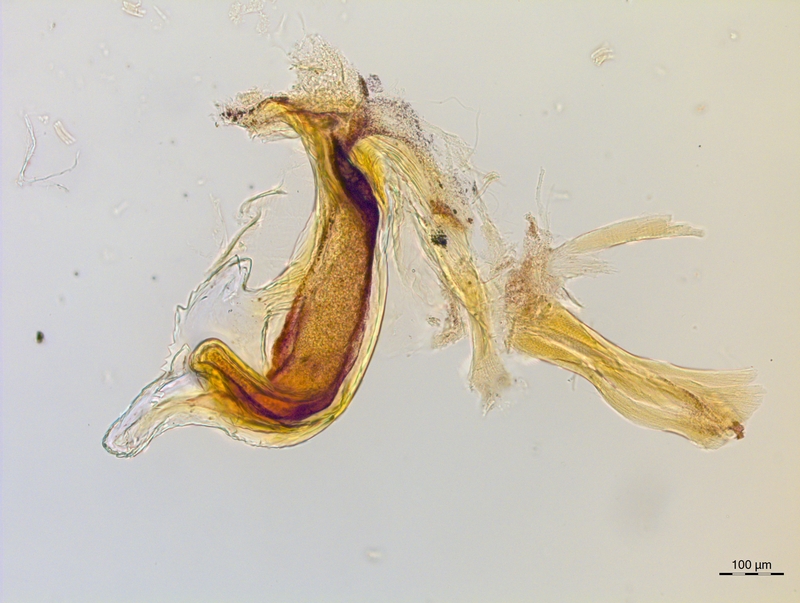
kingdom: Animalia
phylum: Arthropoda
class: Diplopoda
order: Chordeumatida
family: Craspedosomatidae
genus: Craspedosoma
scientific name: Craspedosoma rawlinsii
